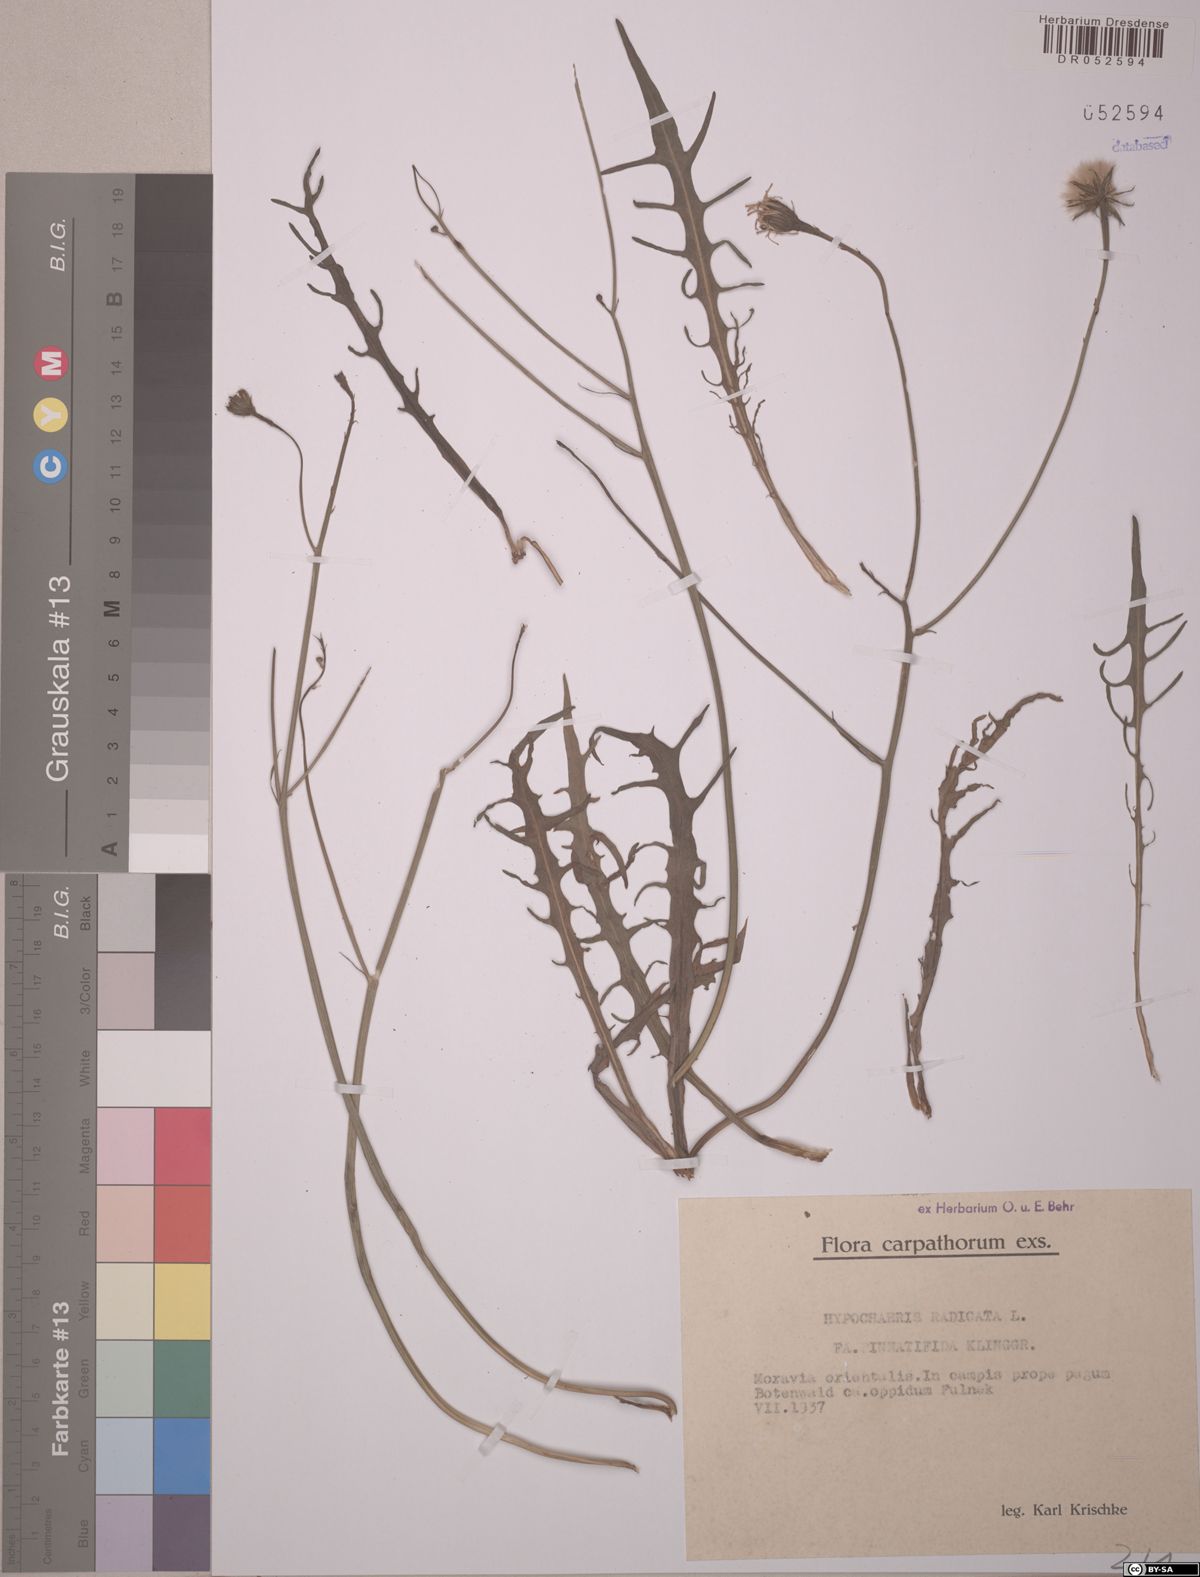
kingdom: Plantae
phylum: Tracheophyta
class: Magnoliopsida
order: Asterales
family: Asteraceae
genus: Hypochaeris
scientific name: Hypochaeris radicata
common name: Flatweed
